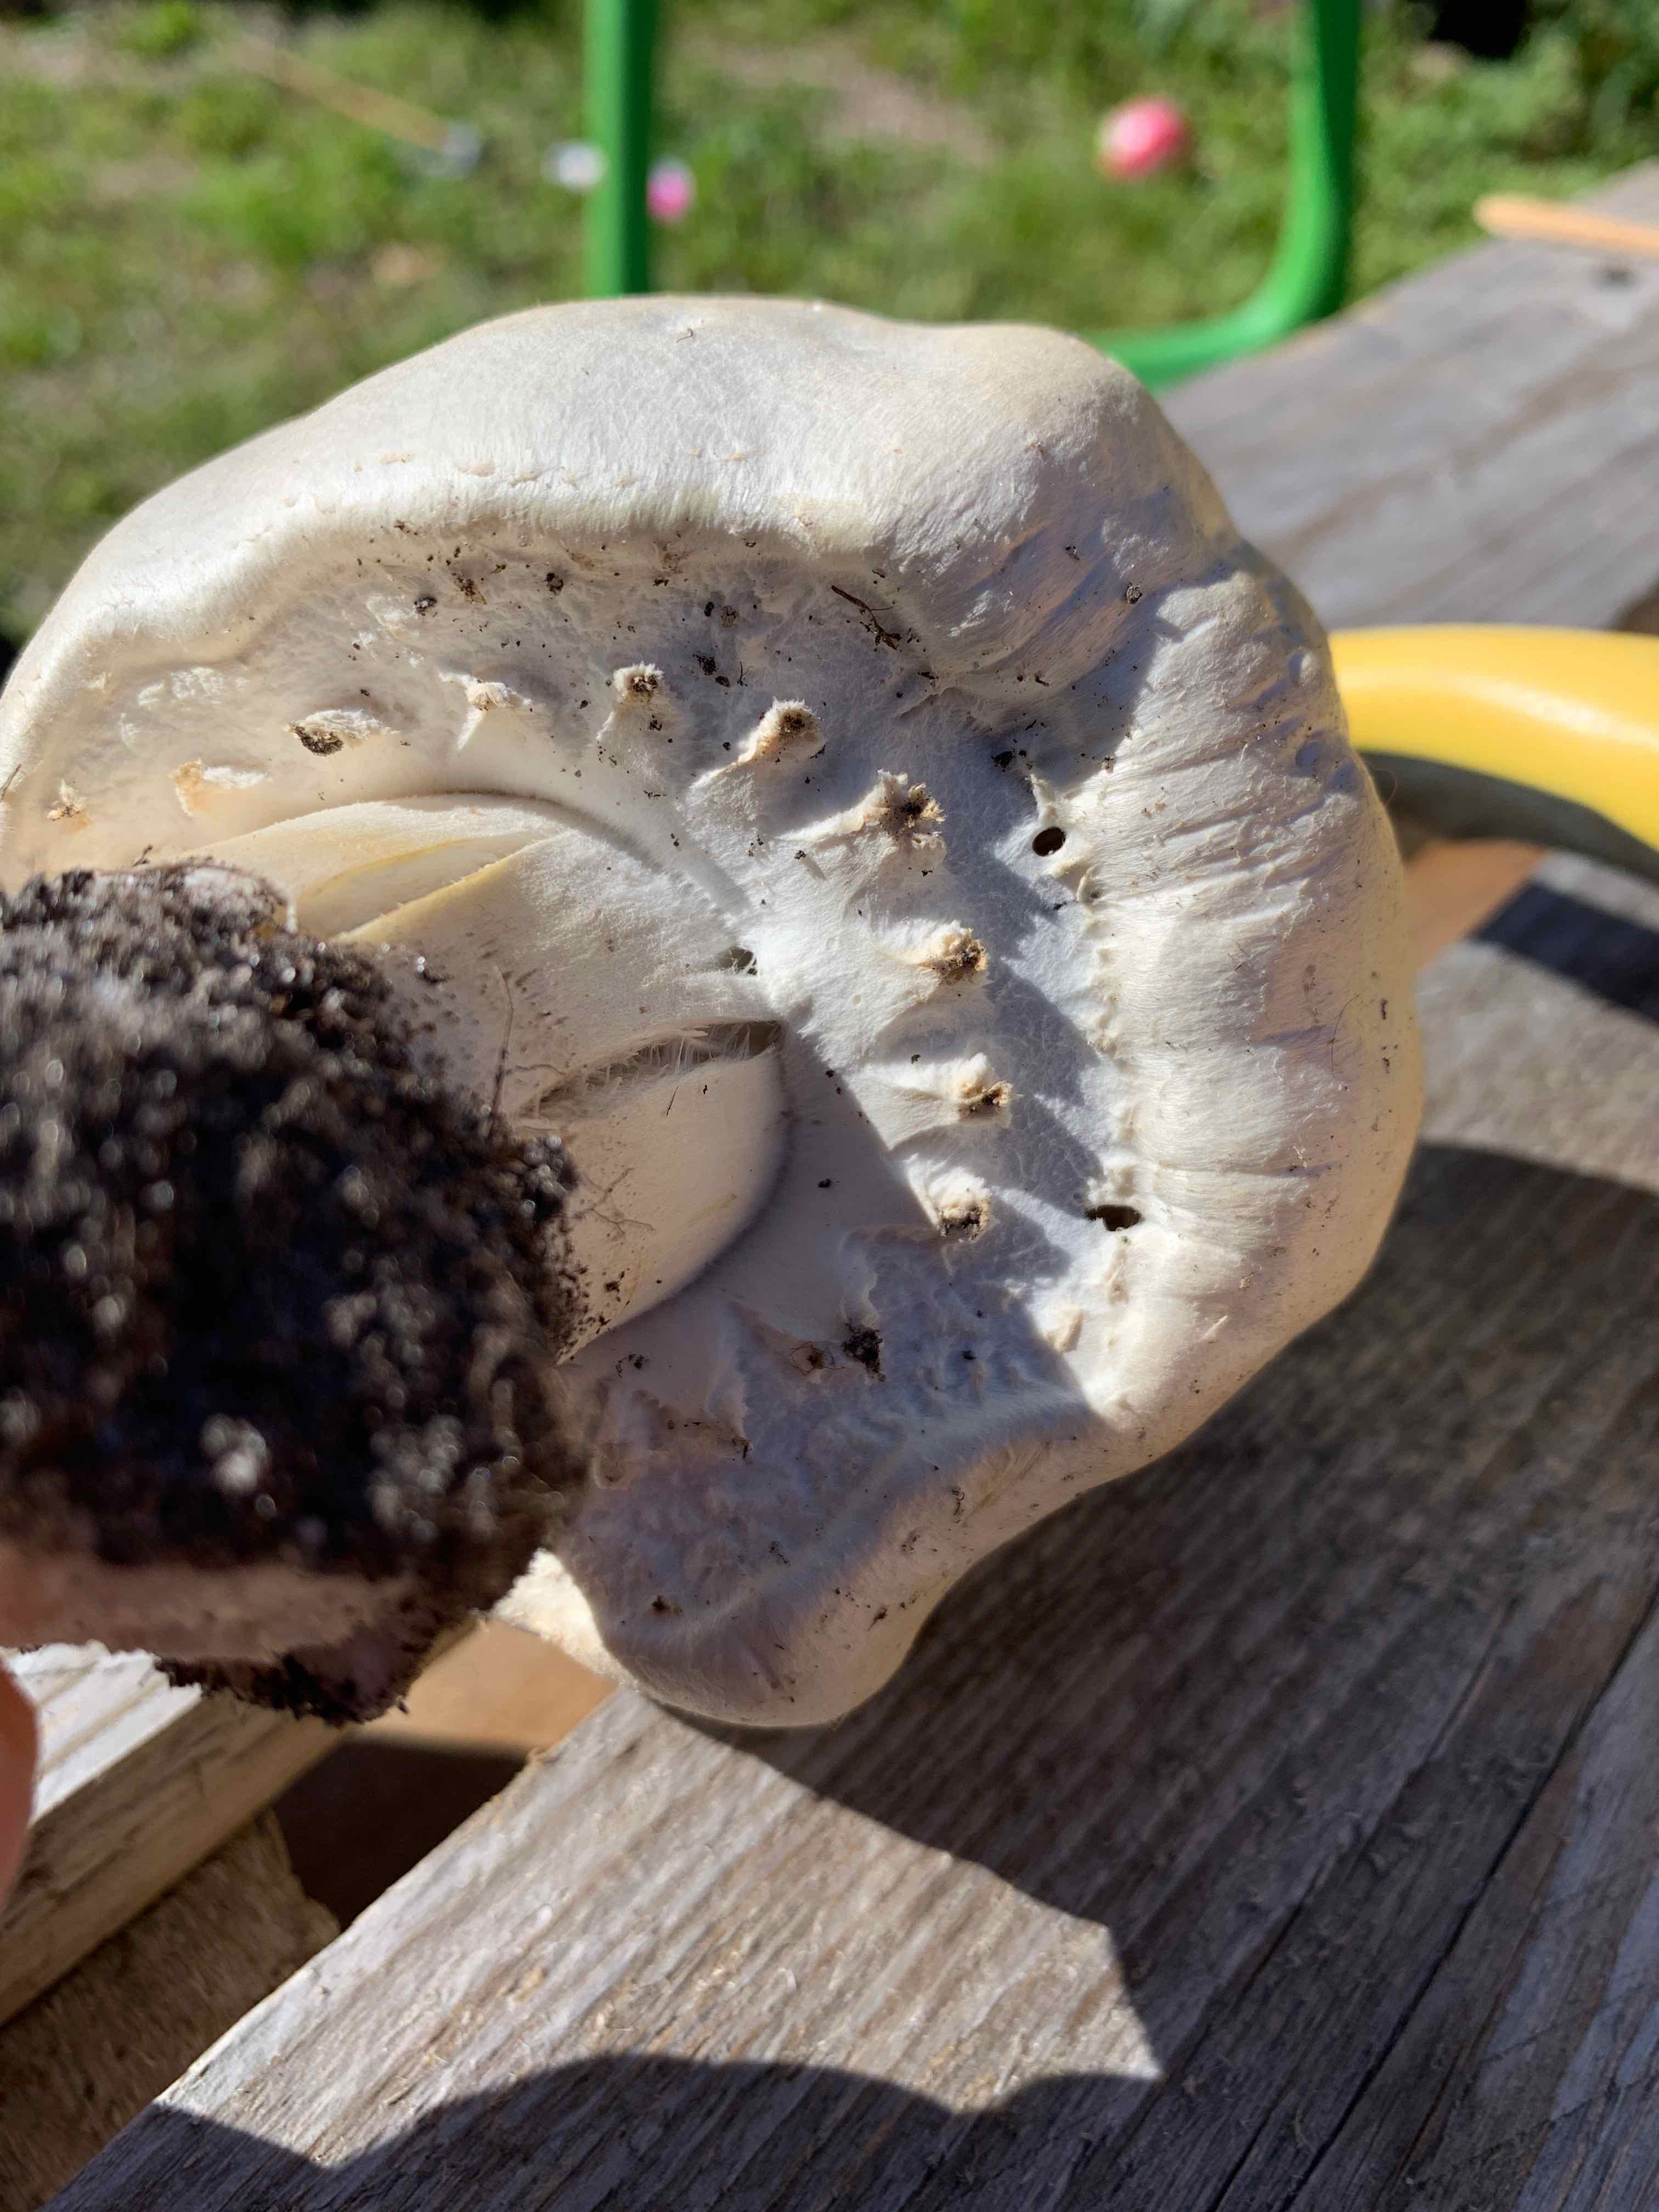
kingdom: Fungi
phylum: Basidiomycota
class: Agaricomycetes
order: Agaricales
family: Agaricaceae
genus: Agaricus
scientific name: Agaricus arvensis
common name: ager-champignon
